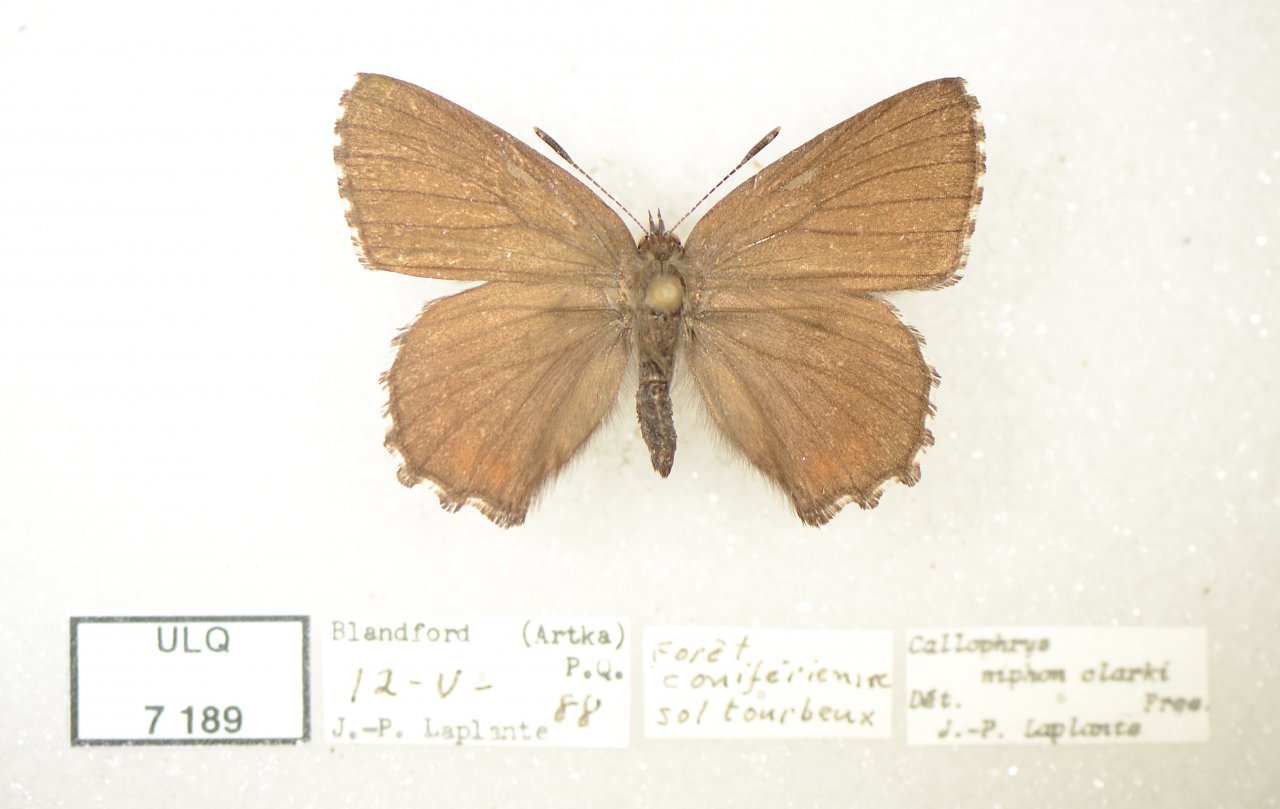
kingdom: Animalia
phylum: Arthropoda
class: Insecta
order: Lepidoptera
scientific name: Lepidoptera
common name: Butterflies
